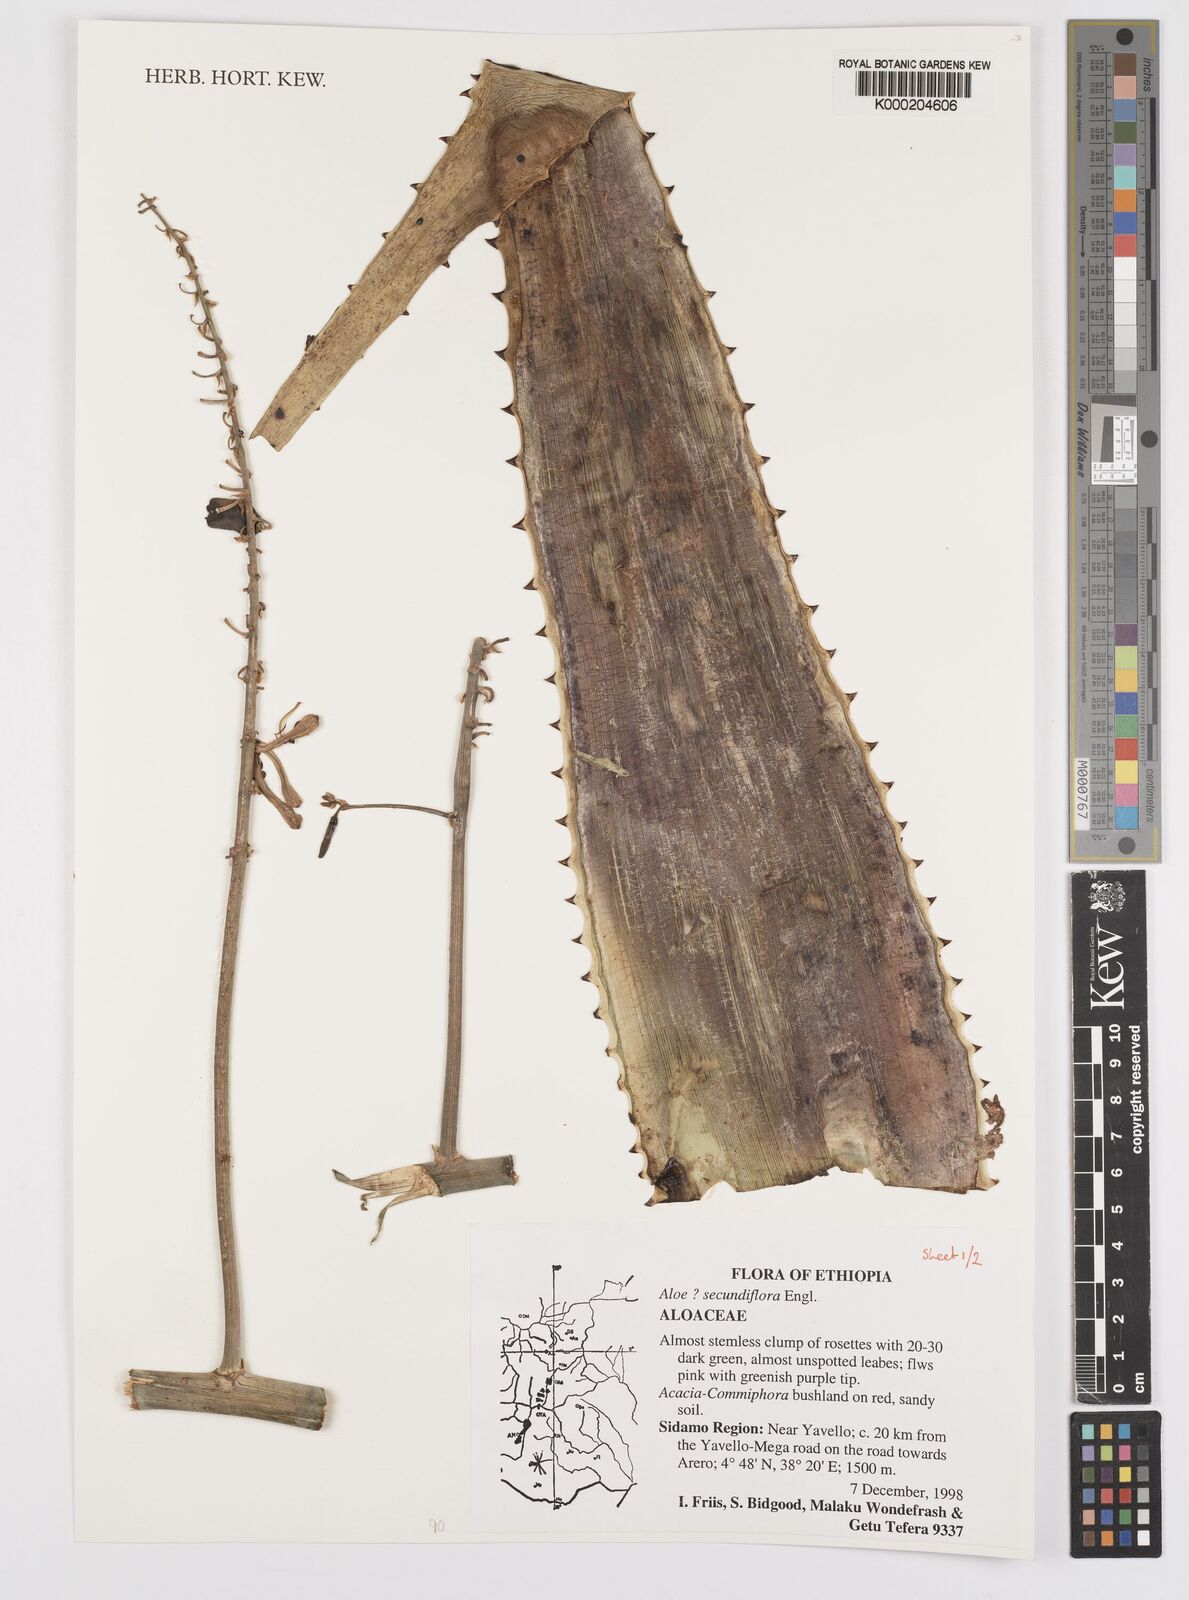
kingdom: Plantae
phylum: Tracheophyta
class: Liliopsida
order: Asparagales
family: Asphodelaceae
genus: Aloe
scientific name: Aloe secundiflora
